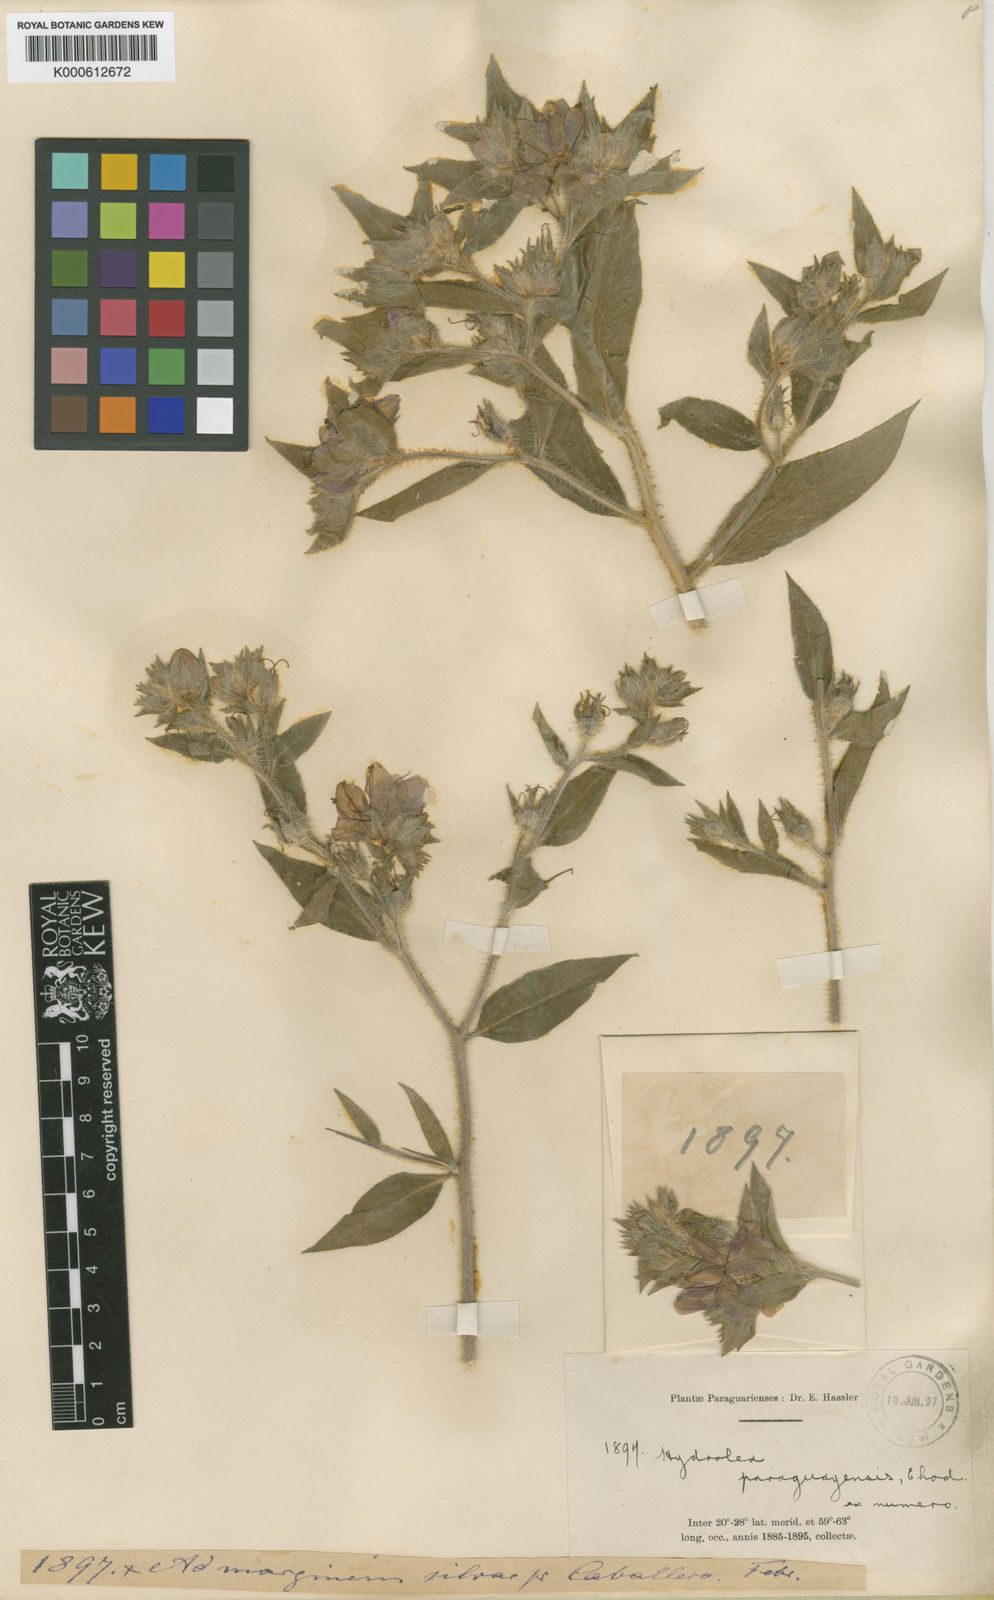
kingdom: Plantae
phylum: Tracheophyta
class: Magnoliopsida
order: Solanales
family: Hydroleaceae
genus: Hydrolea
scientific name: Hydrolea spinosa
